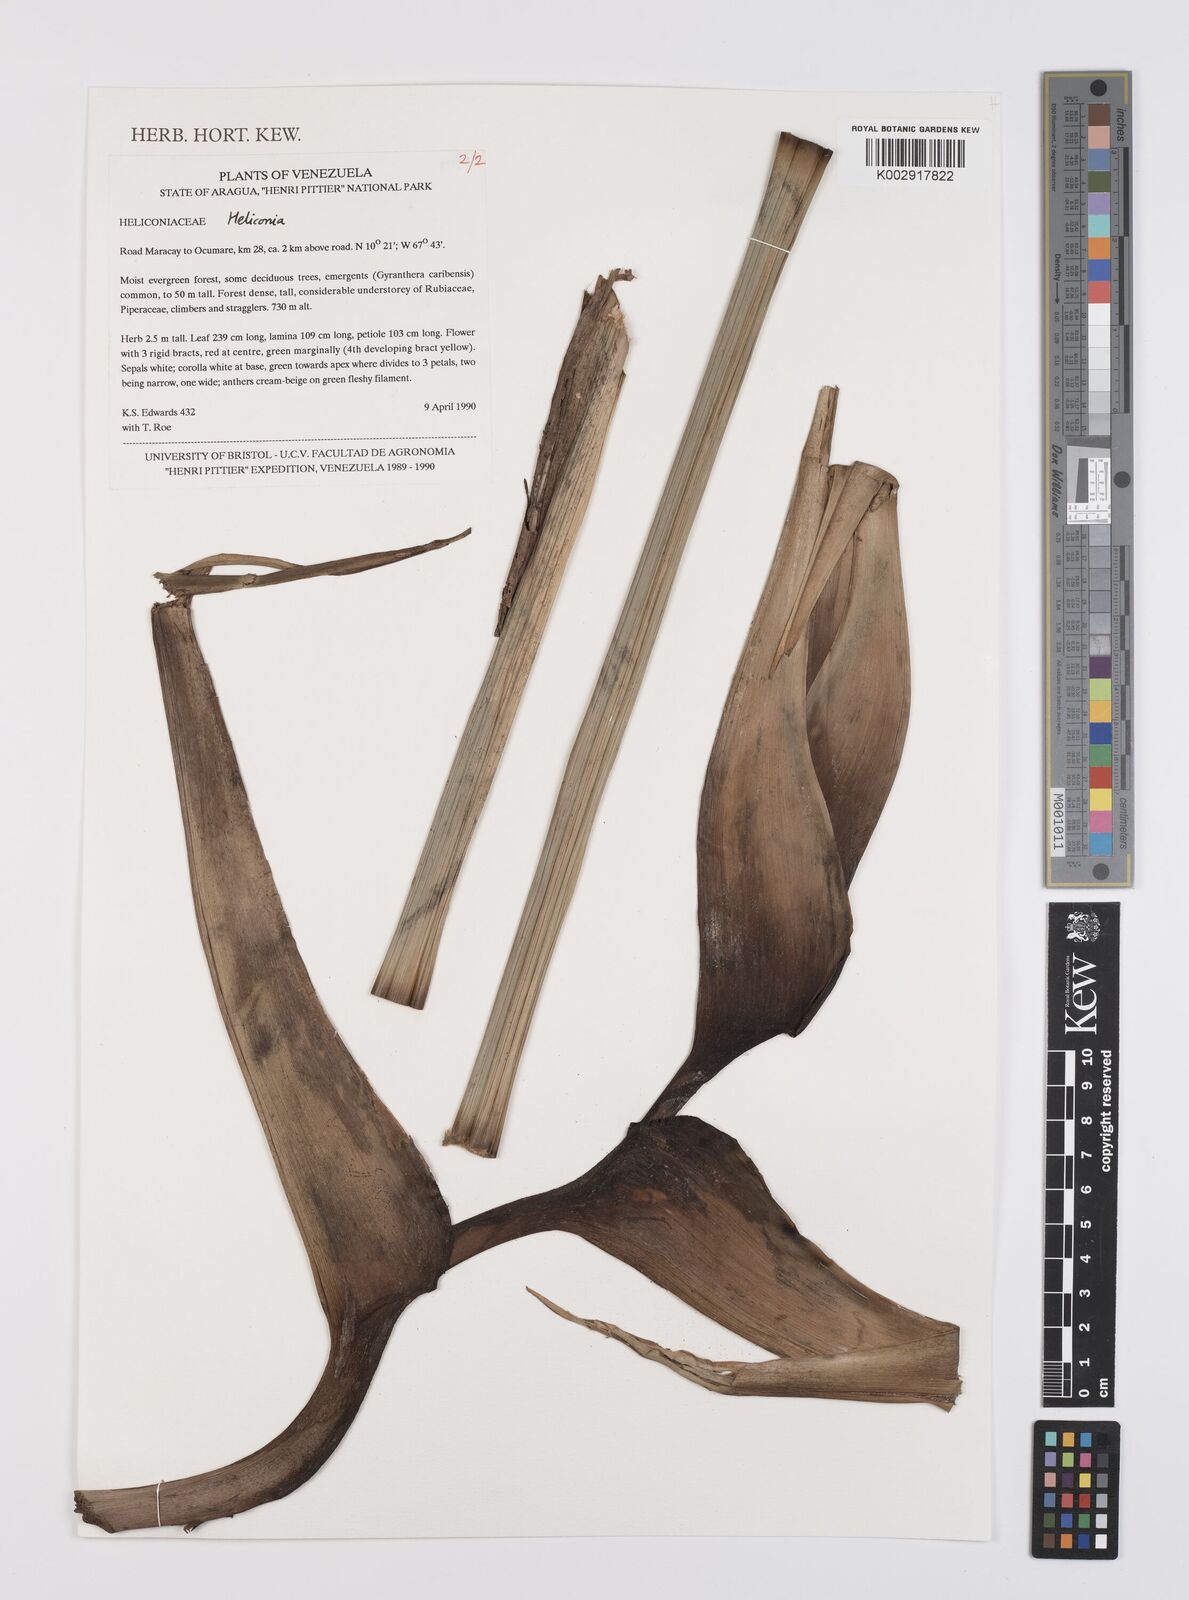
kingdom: Plantae
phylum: Tracheophyta
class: Liliopsida
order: Zingiberales
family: Heliconiaceae
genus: Heliconia
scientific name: Heliconia
